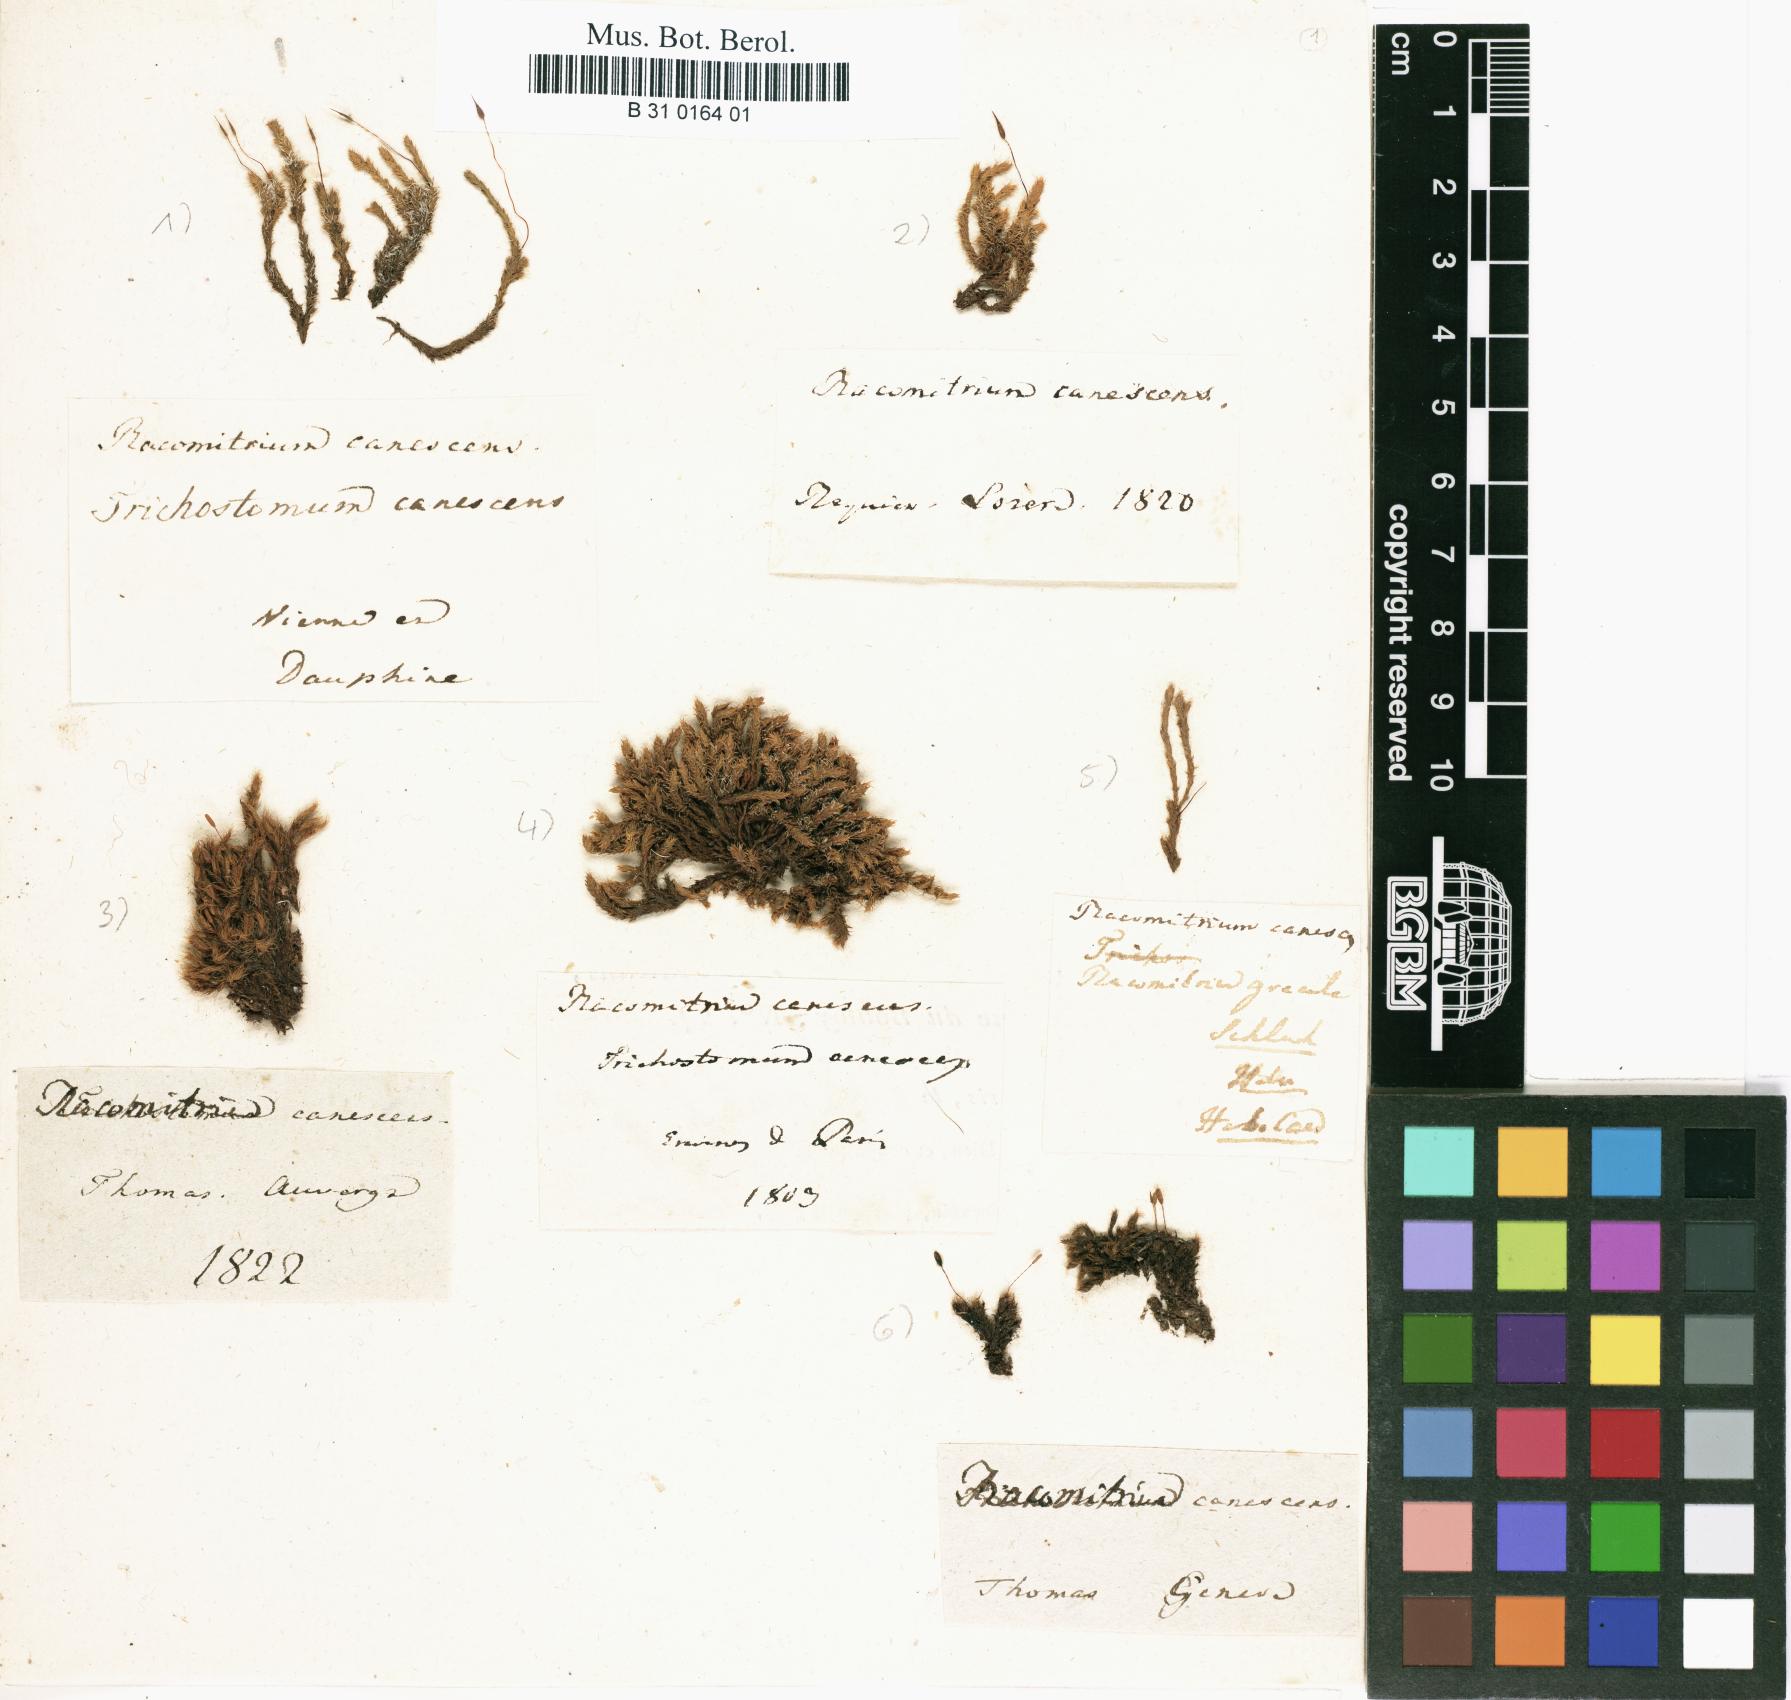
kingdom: Plantae
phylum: Bryophyta
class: Bryopsida
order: Grimmiales
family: Grimmiaceae
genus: Niphotrichum
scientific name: Niphotrichum canescens
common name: Hoary fringe-moss
